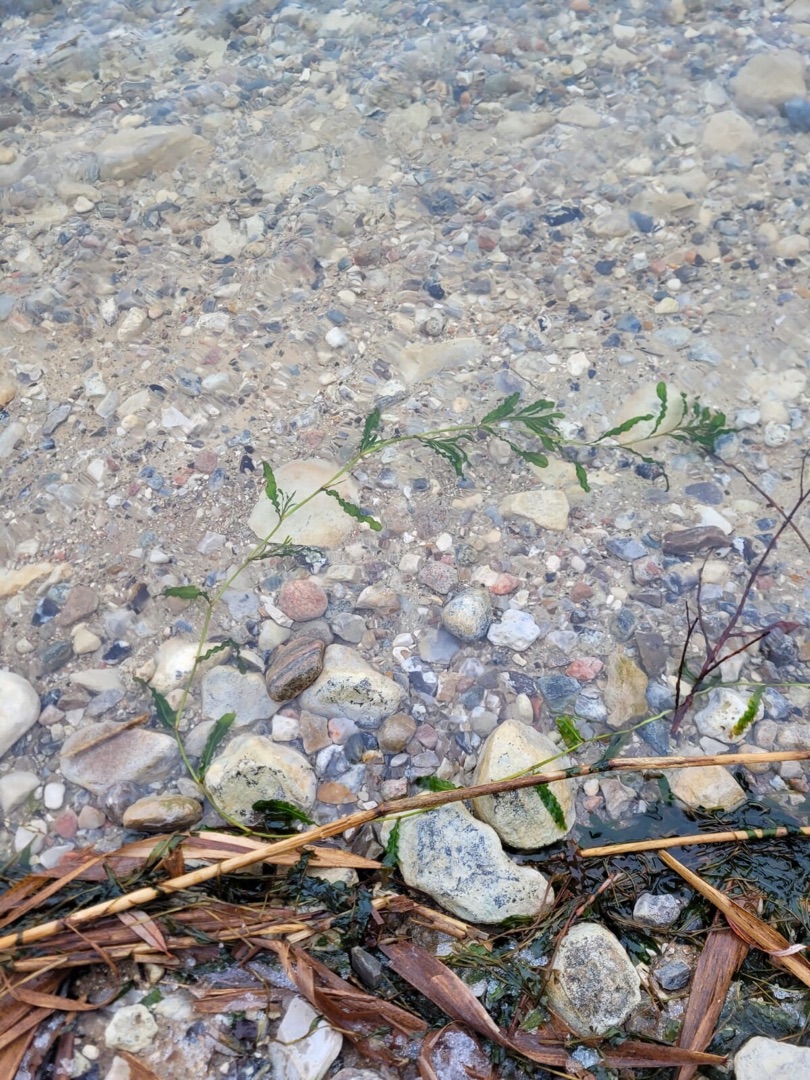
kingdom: Plantae
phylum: Tracheophyta
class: Liliopsida
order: Alismatales
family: Potamogetonaceae
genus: Potamogeton
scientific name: Potamogeton crispus
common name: Kruset vandaks
